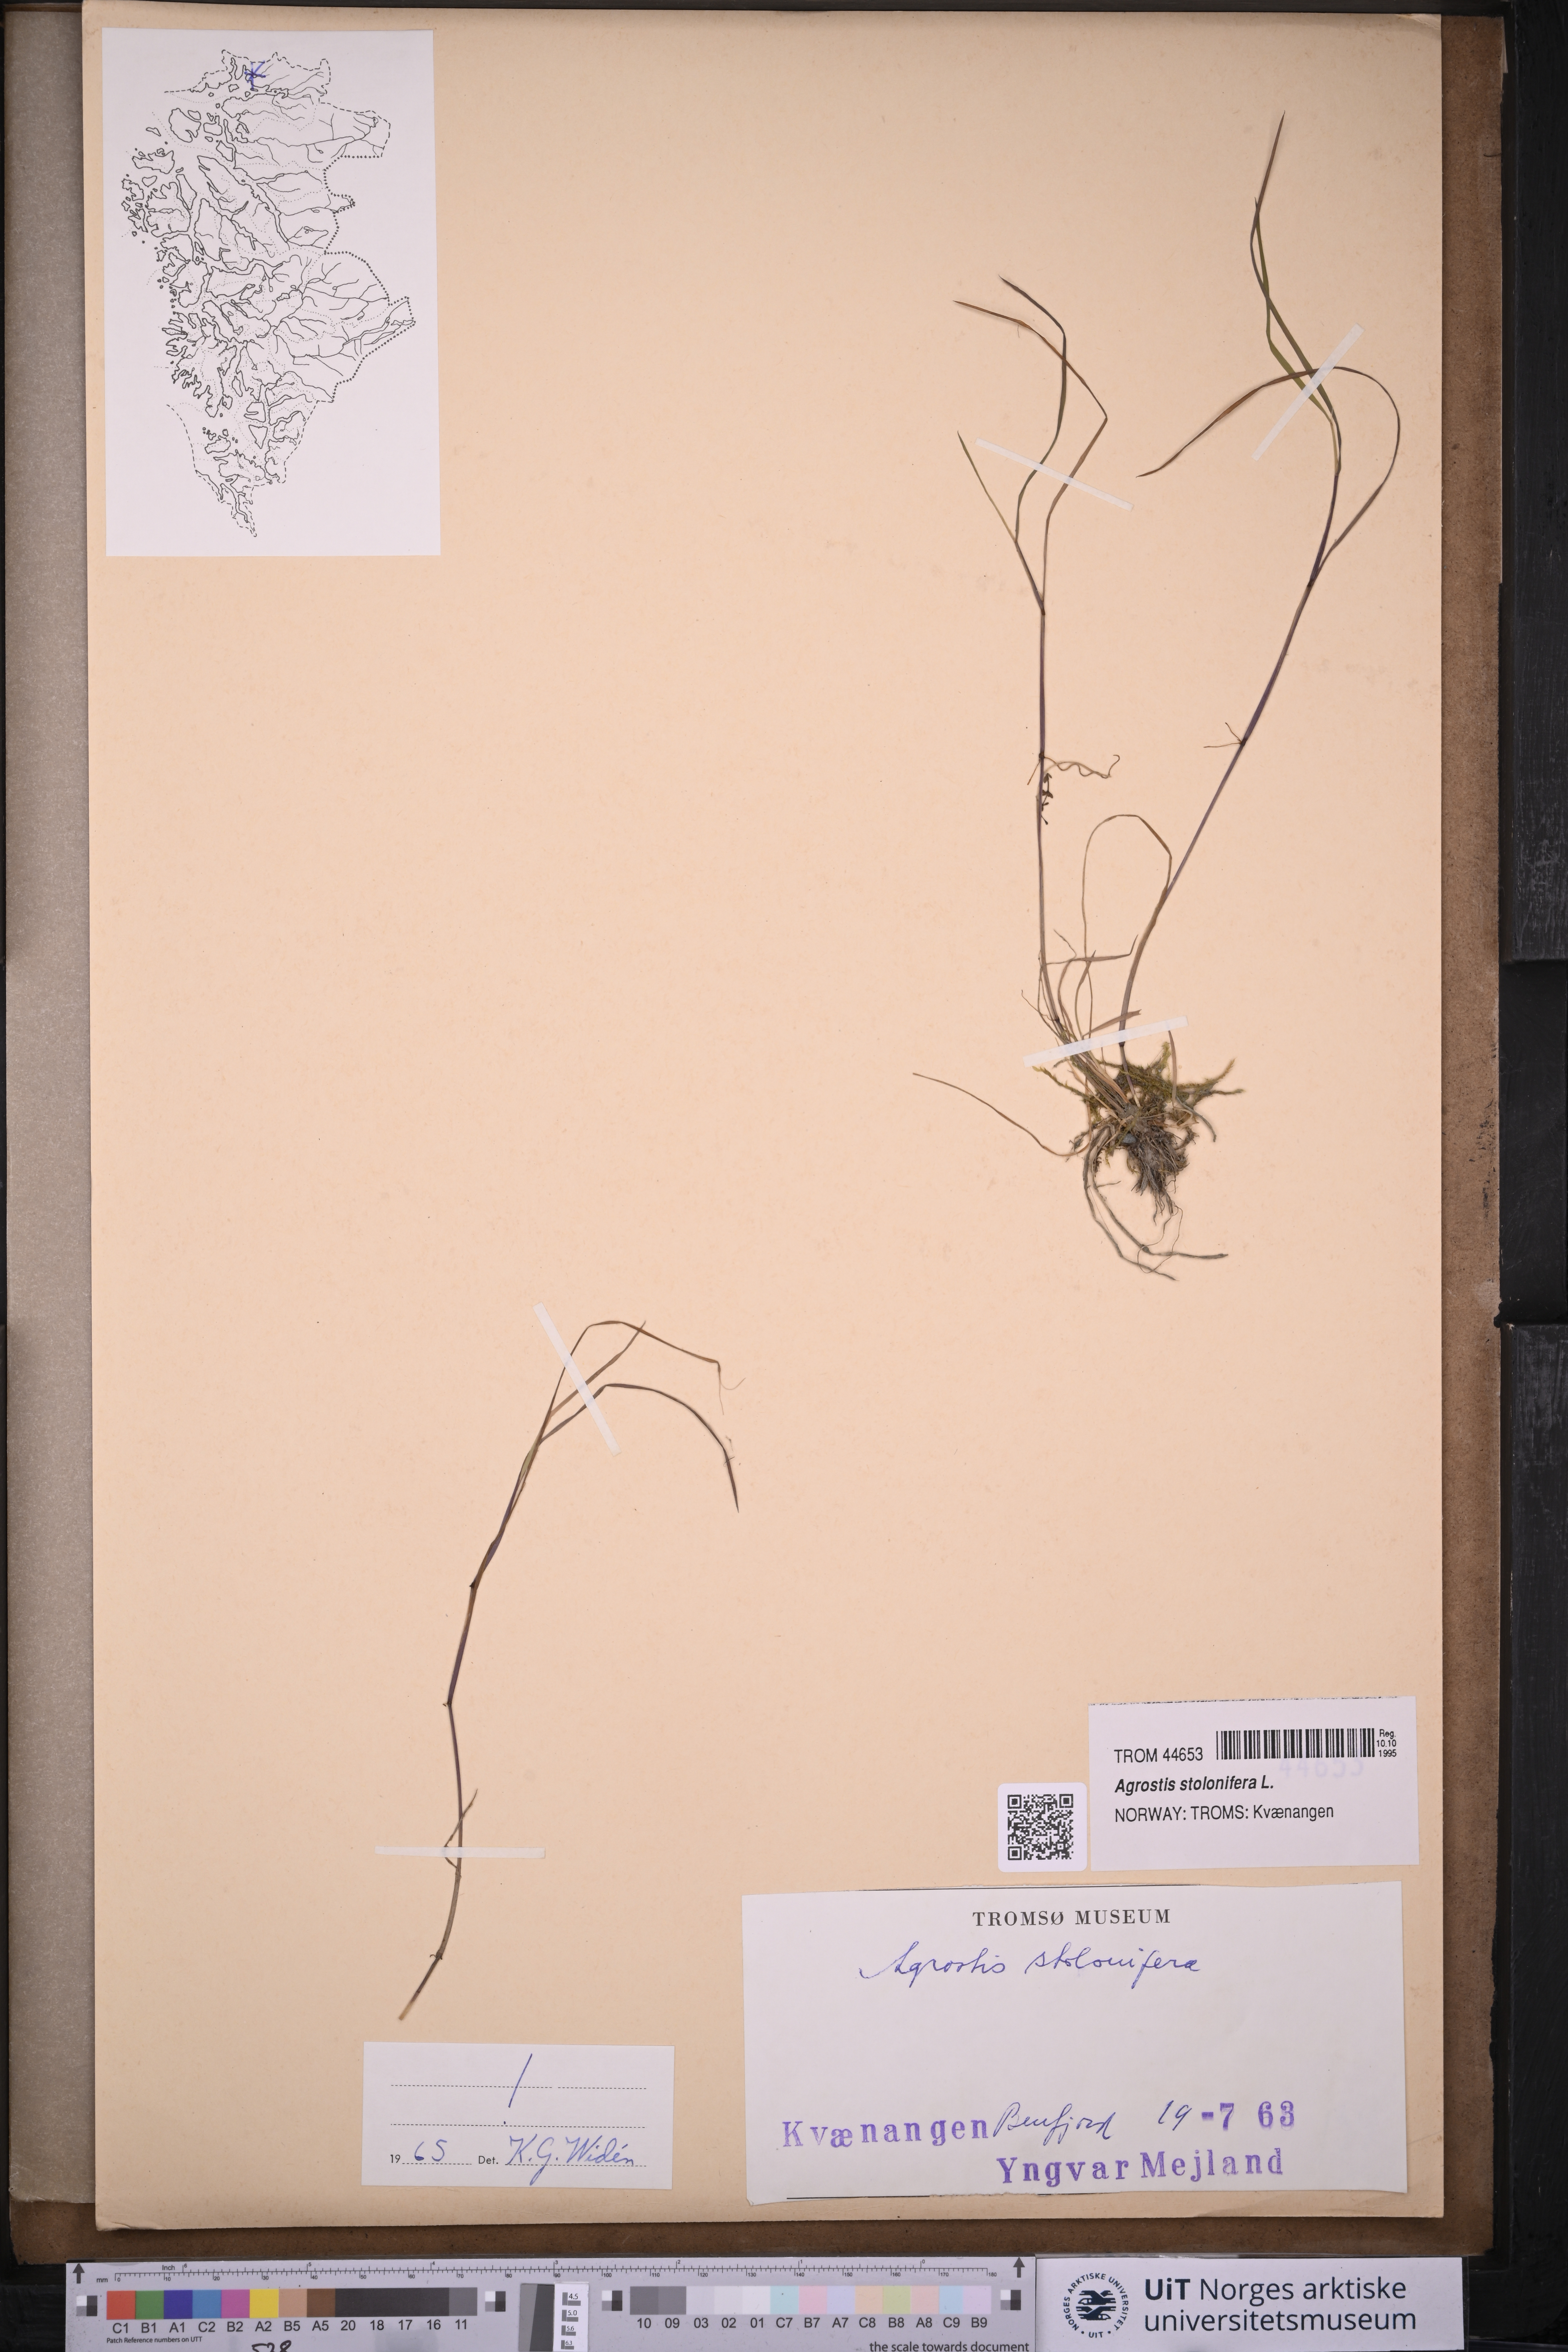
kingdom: Plantae
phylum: Tracheophyta
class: Liliopsida
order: Poales
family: Poaceae
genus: Agrostis
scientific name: Agrostis stolonifera
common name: Creeping bentgrass
